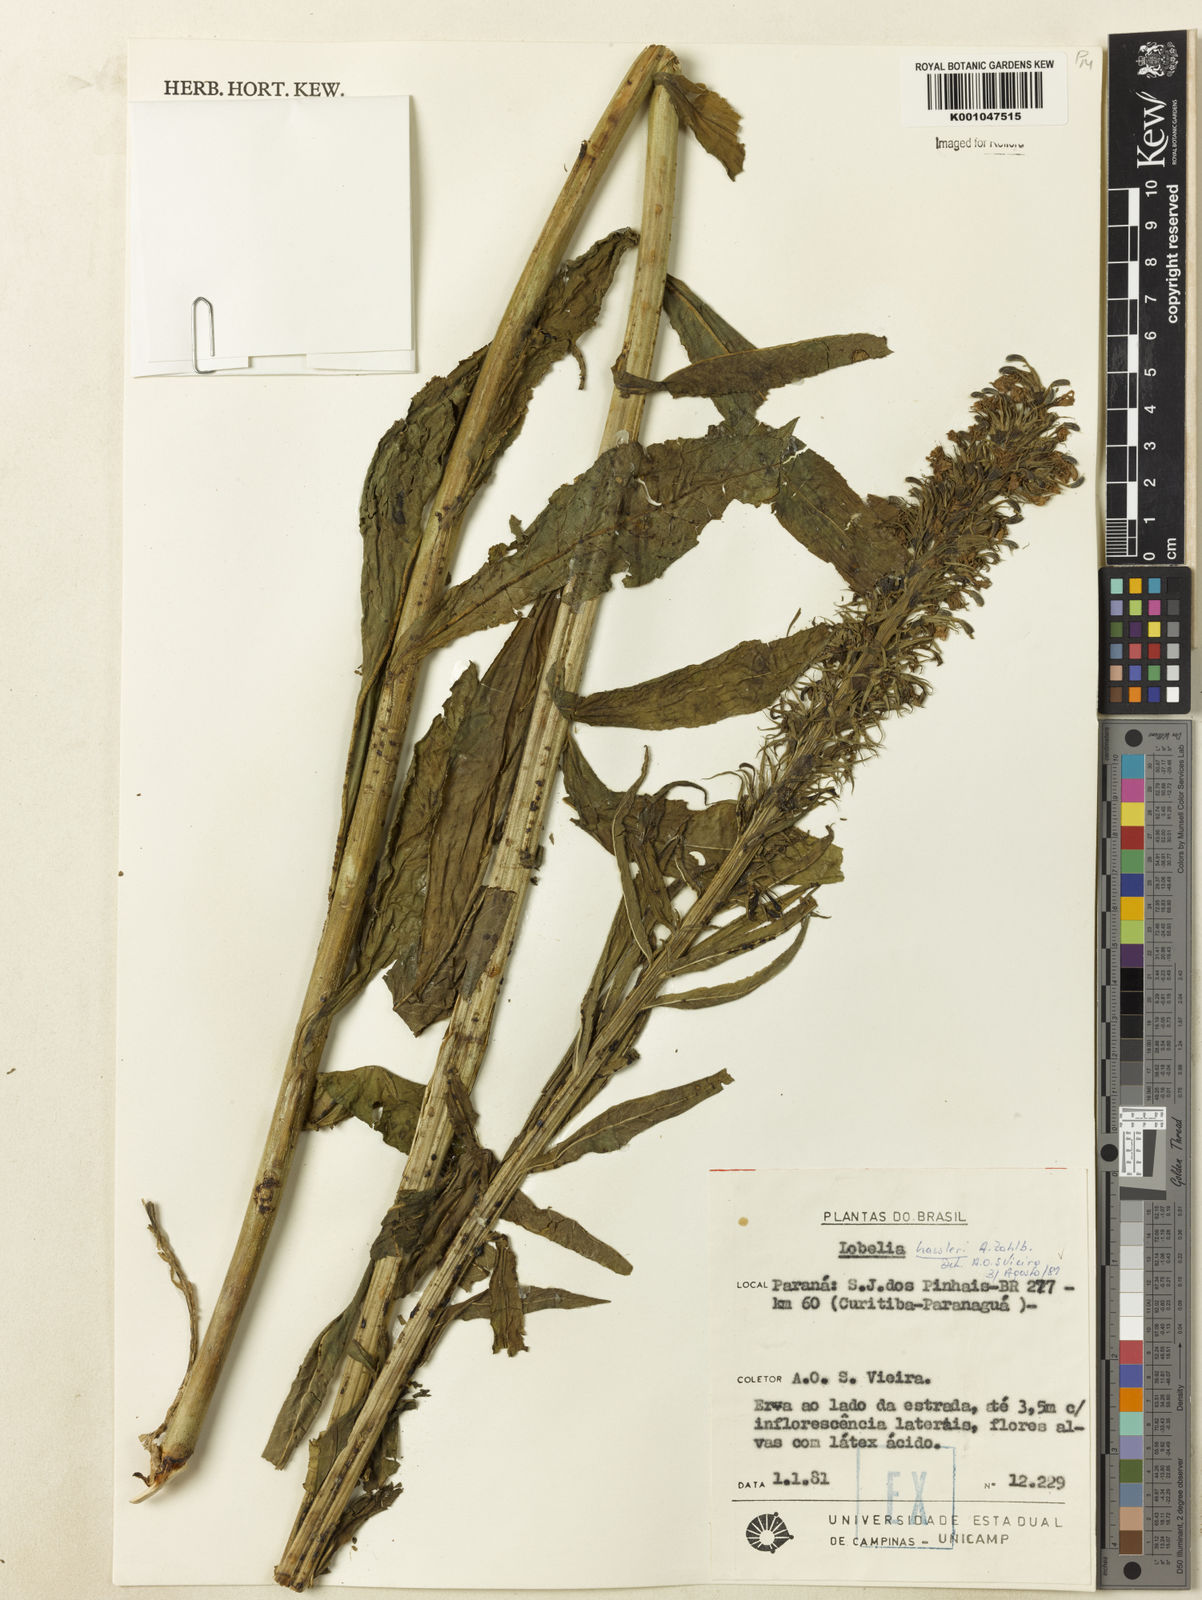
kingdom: Plantae
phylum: Tracheophyta
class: Magnoliopsida
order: Asterales
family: Campanulaceae
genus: Lobelia
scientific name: Lobelia hassleri
